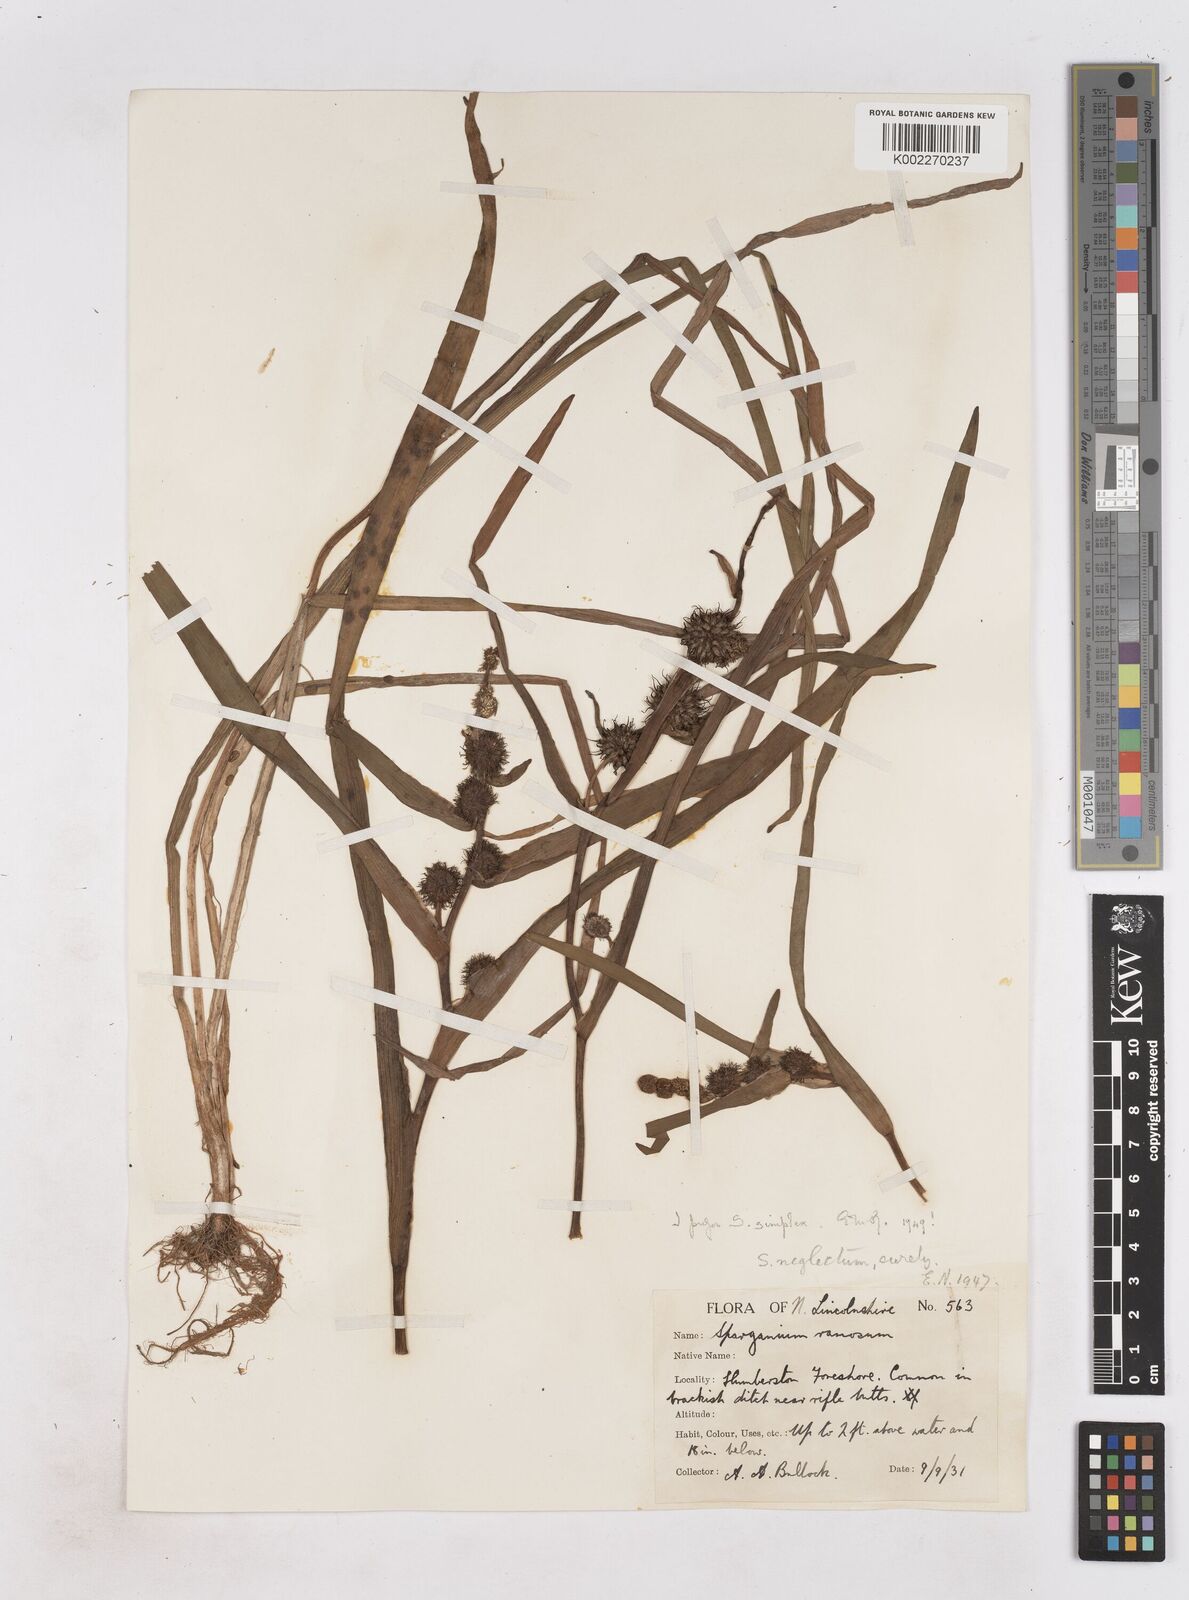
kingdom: Plantae
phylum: Tracheophyta
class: Liliopsida
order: Poales
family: Typhaceae
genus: Sparganium
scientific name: Sparganium emersum
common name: Unbranched bur-reed
